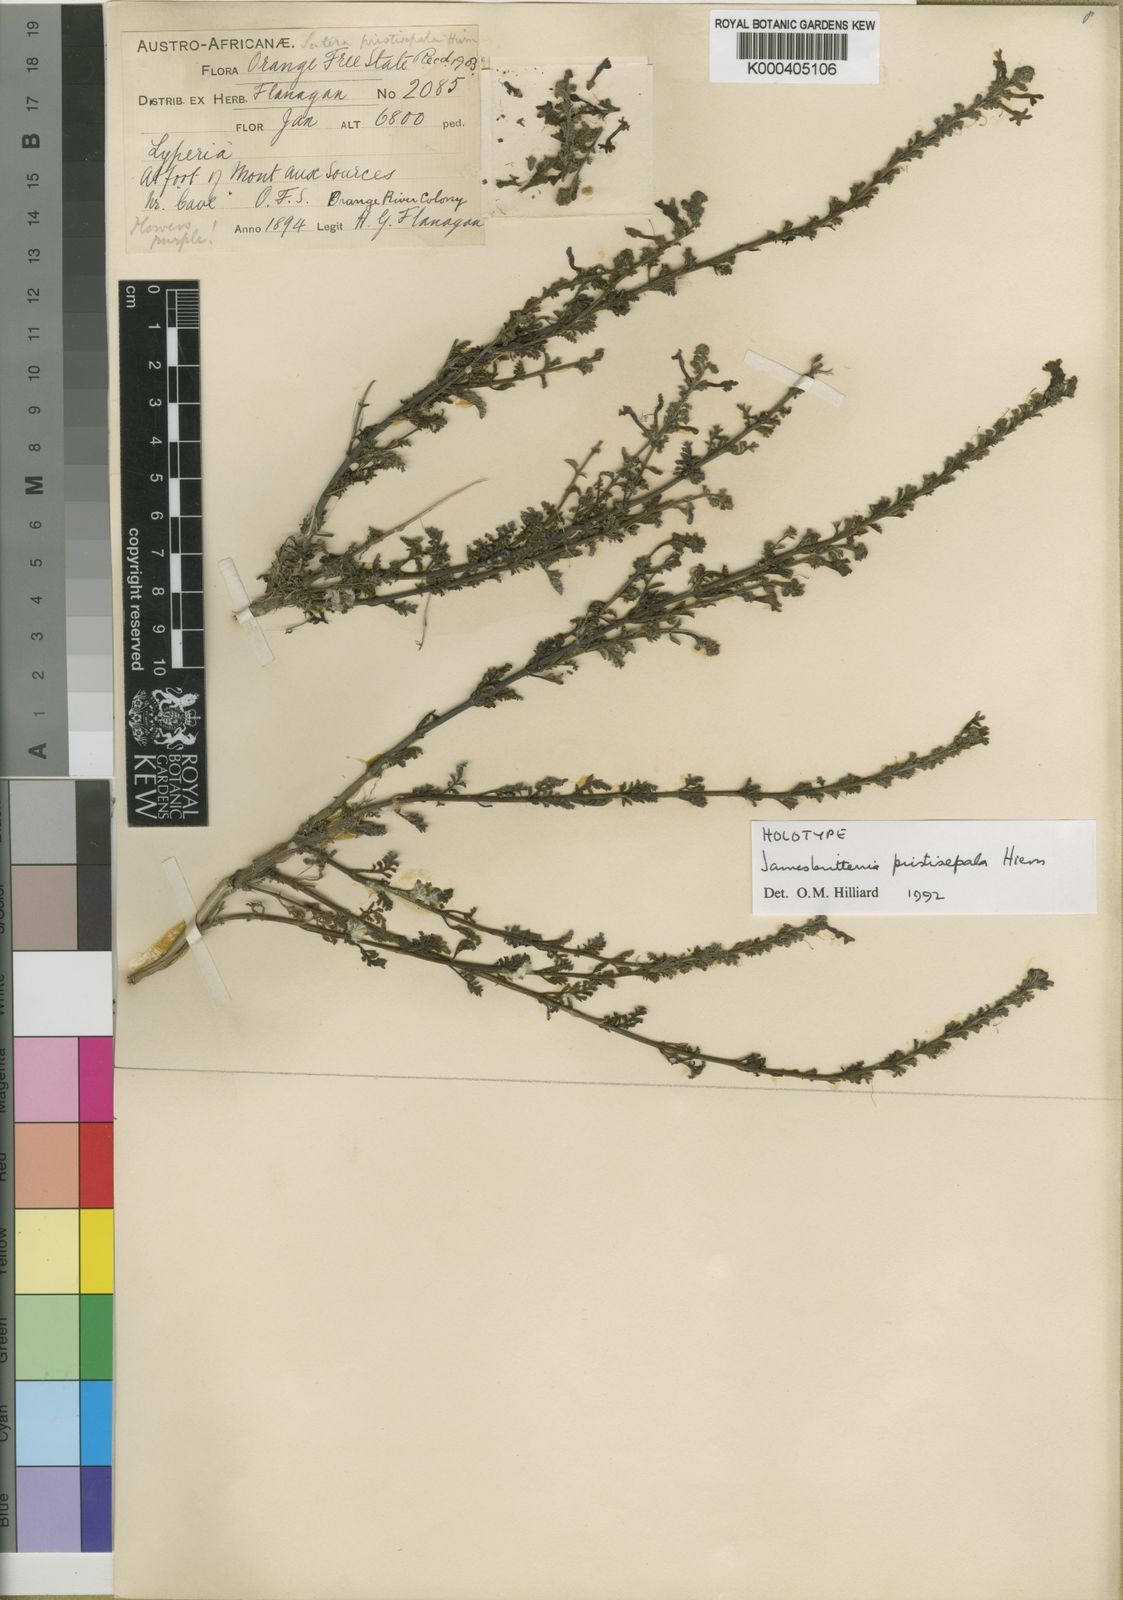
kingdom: Plantae
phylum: Tracheophyta
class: Magnoliopsida
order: Lamiales
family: Scrophulariaceae
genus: Jamesbrittenia
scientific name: Jamesbrittenia pristisepala
